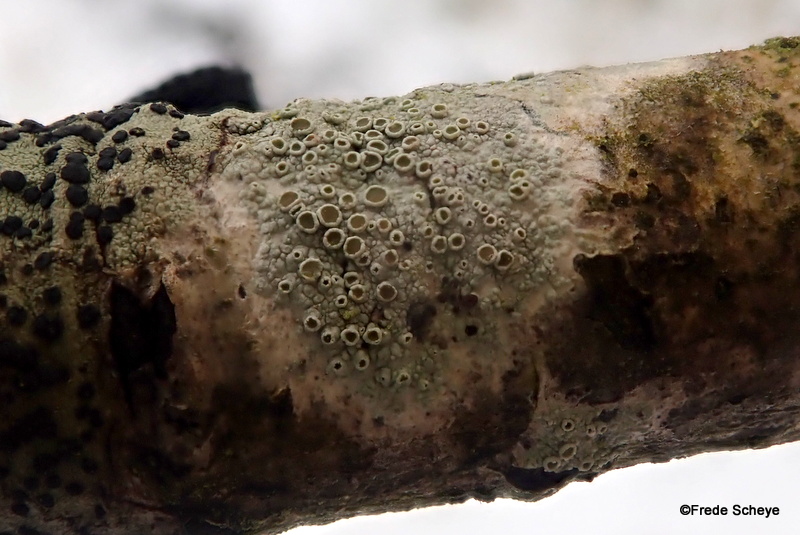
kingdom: Fungi
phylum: Ascomycota
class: Lecanoromycetes
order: Lecanorales
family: Lecanoraceae
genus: Lecanora
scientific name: Lecanora chlarotera
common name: brun kantskivelav
